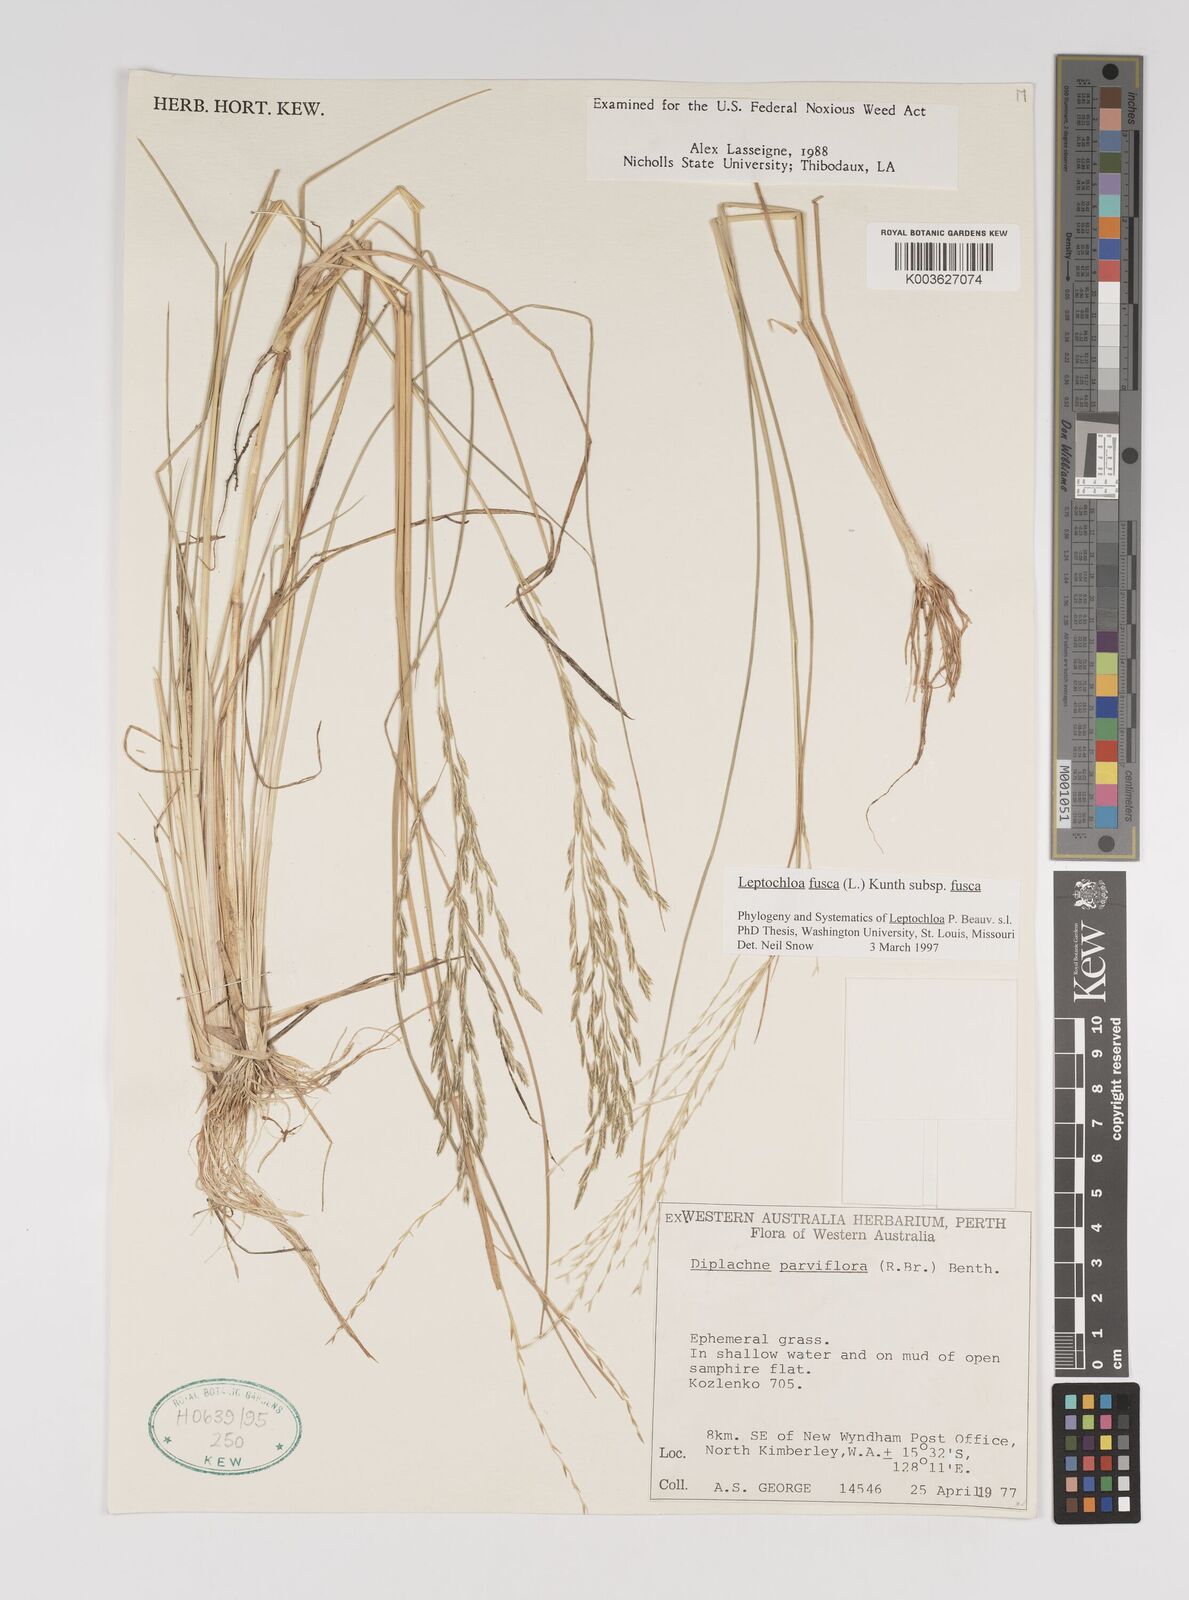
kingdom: Plantae
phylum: Tracheophyta
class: Liliopsida
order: Poales
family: Poaceae
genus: Diplachne
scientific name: Diplachne fusca
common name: Brown beetle grass
